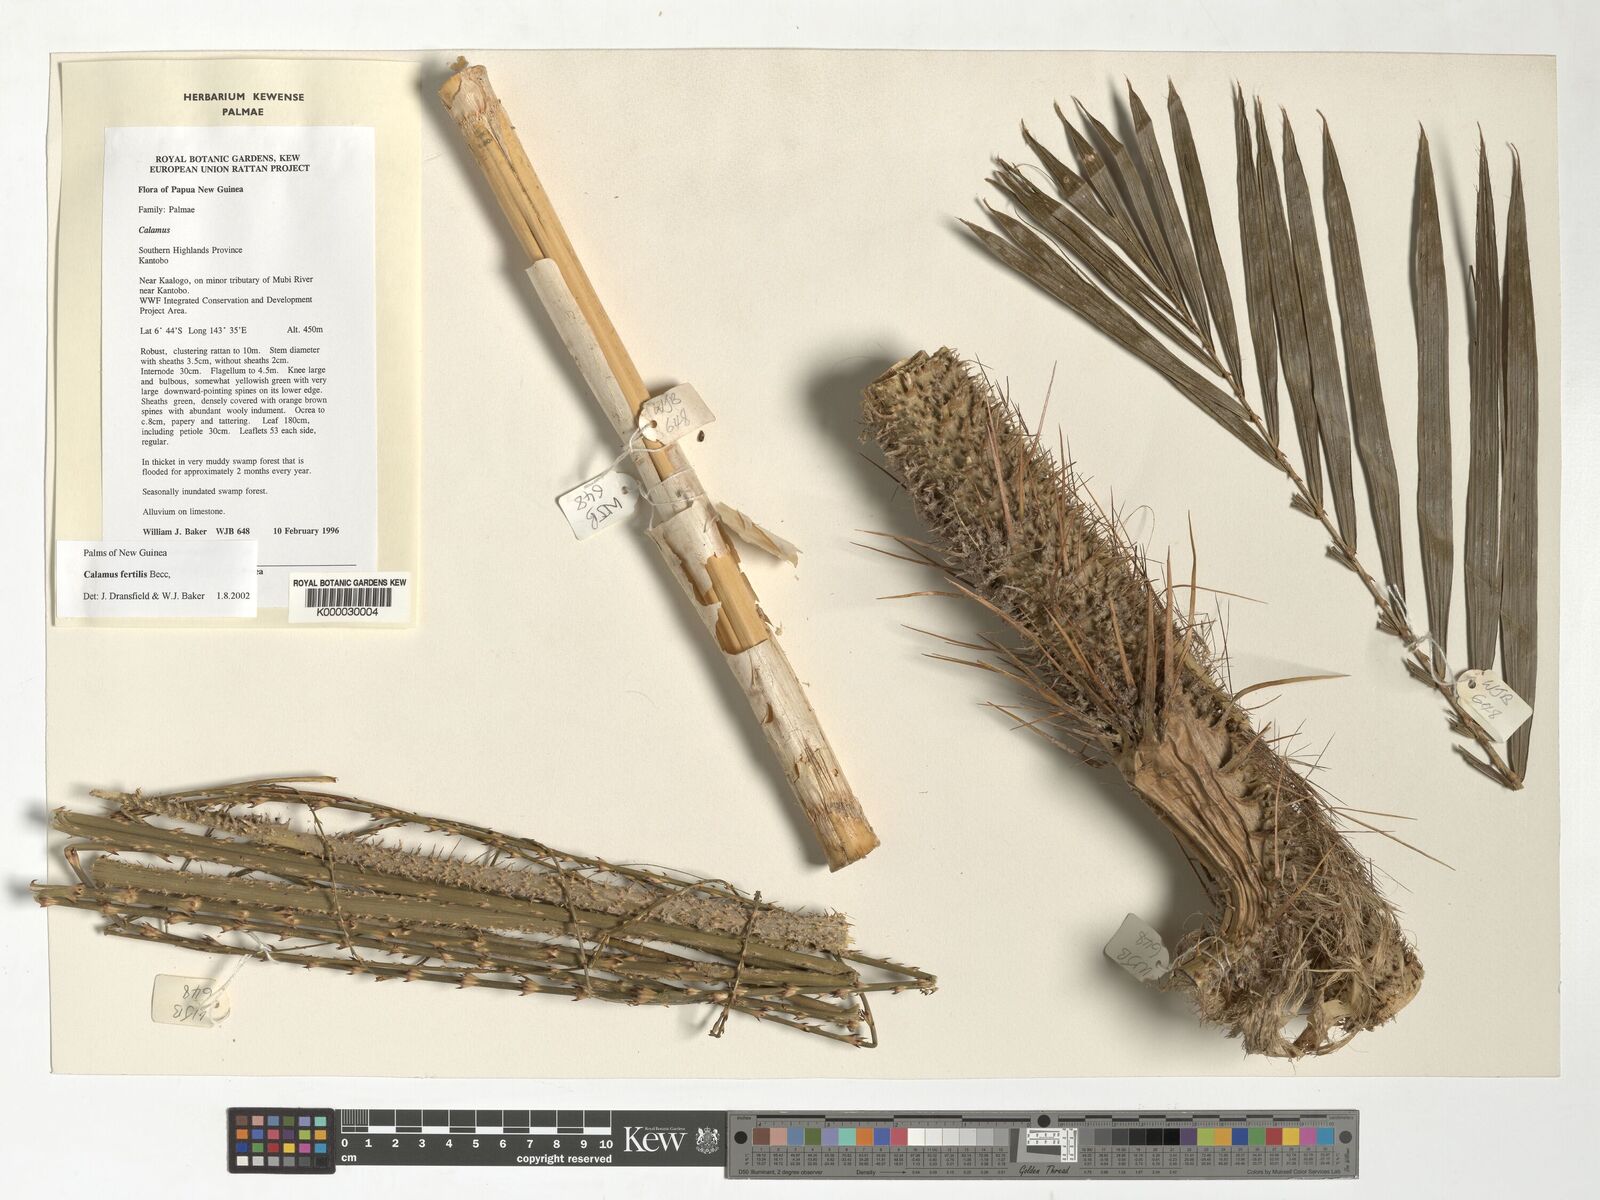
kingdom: Plantae
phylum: Tracheophyta
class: Liliopsida
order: Arecales
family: Arecaceae
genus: Calamus
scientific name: Calamus fertilis
